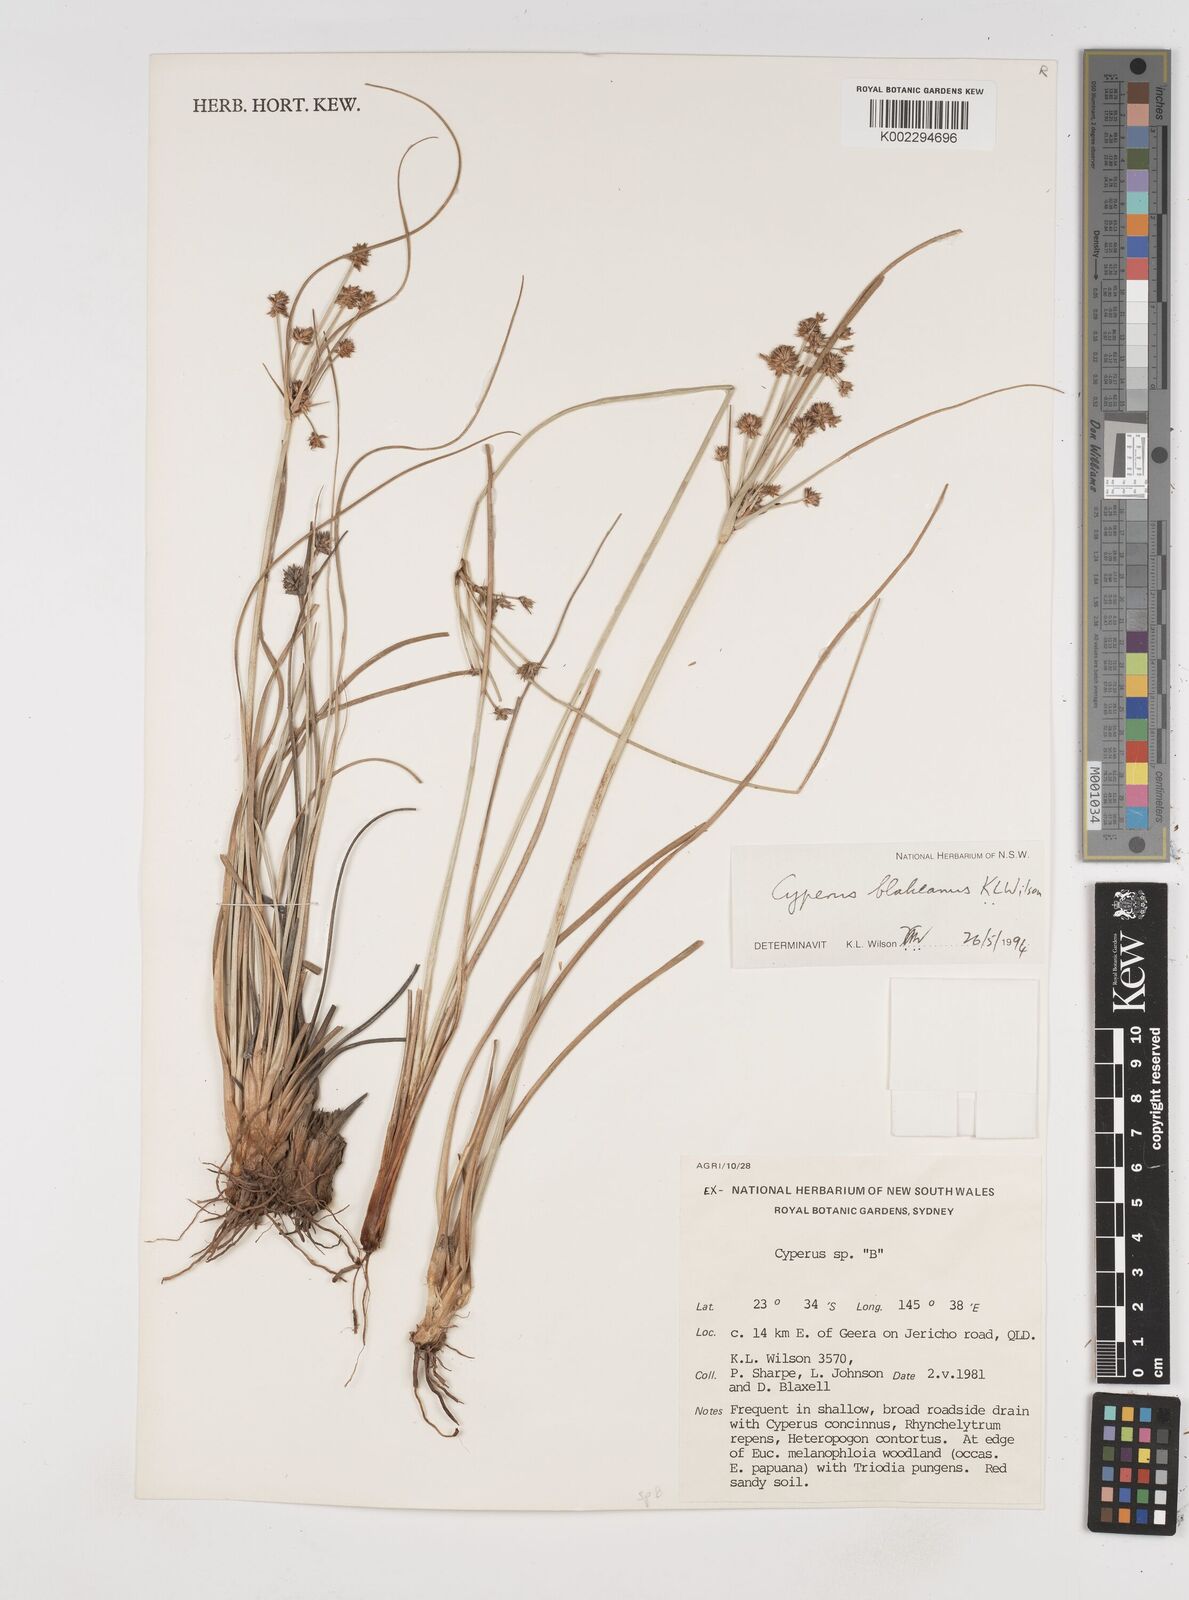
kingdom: Plantae
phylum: Tracheophyta
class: Liliopsida
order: Poales
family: Cyperaceae
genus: Cyperus
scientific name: Cyperus blakeanus
